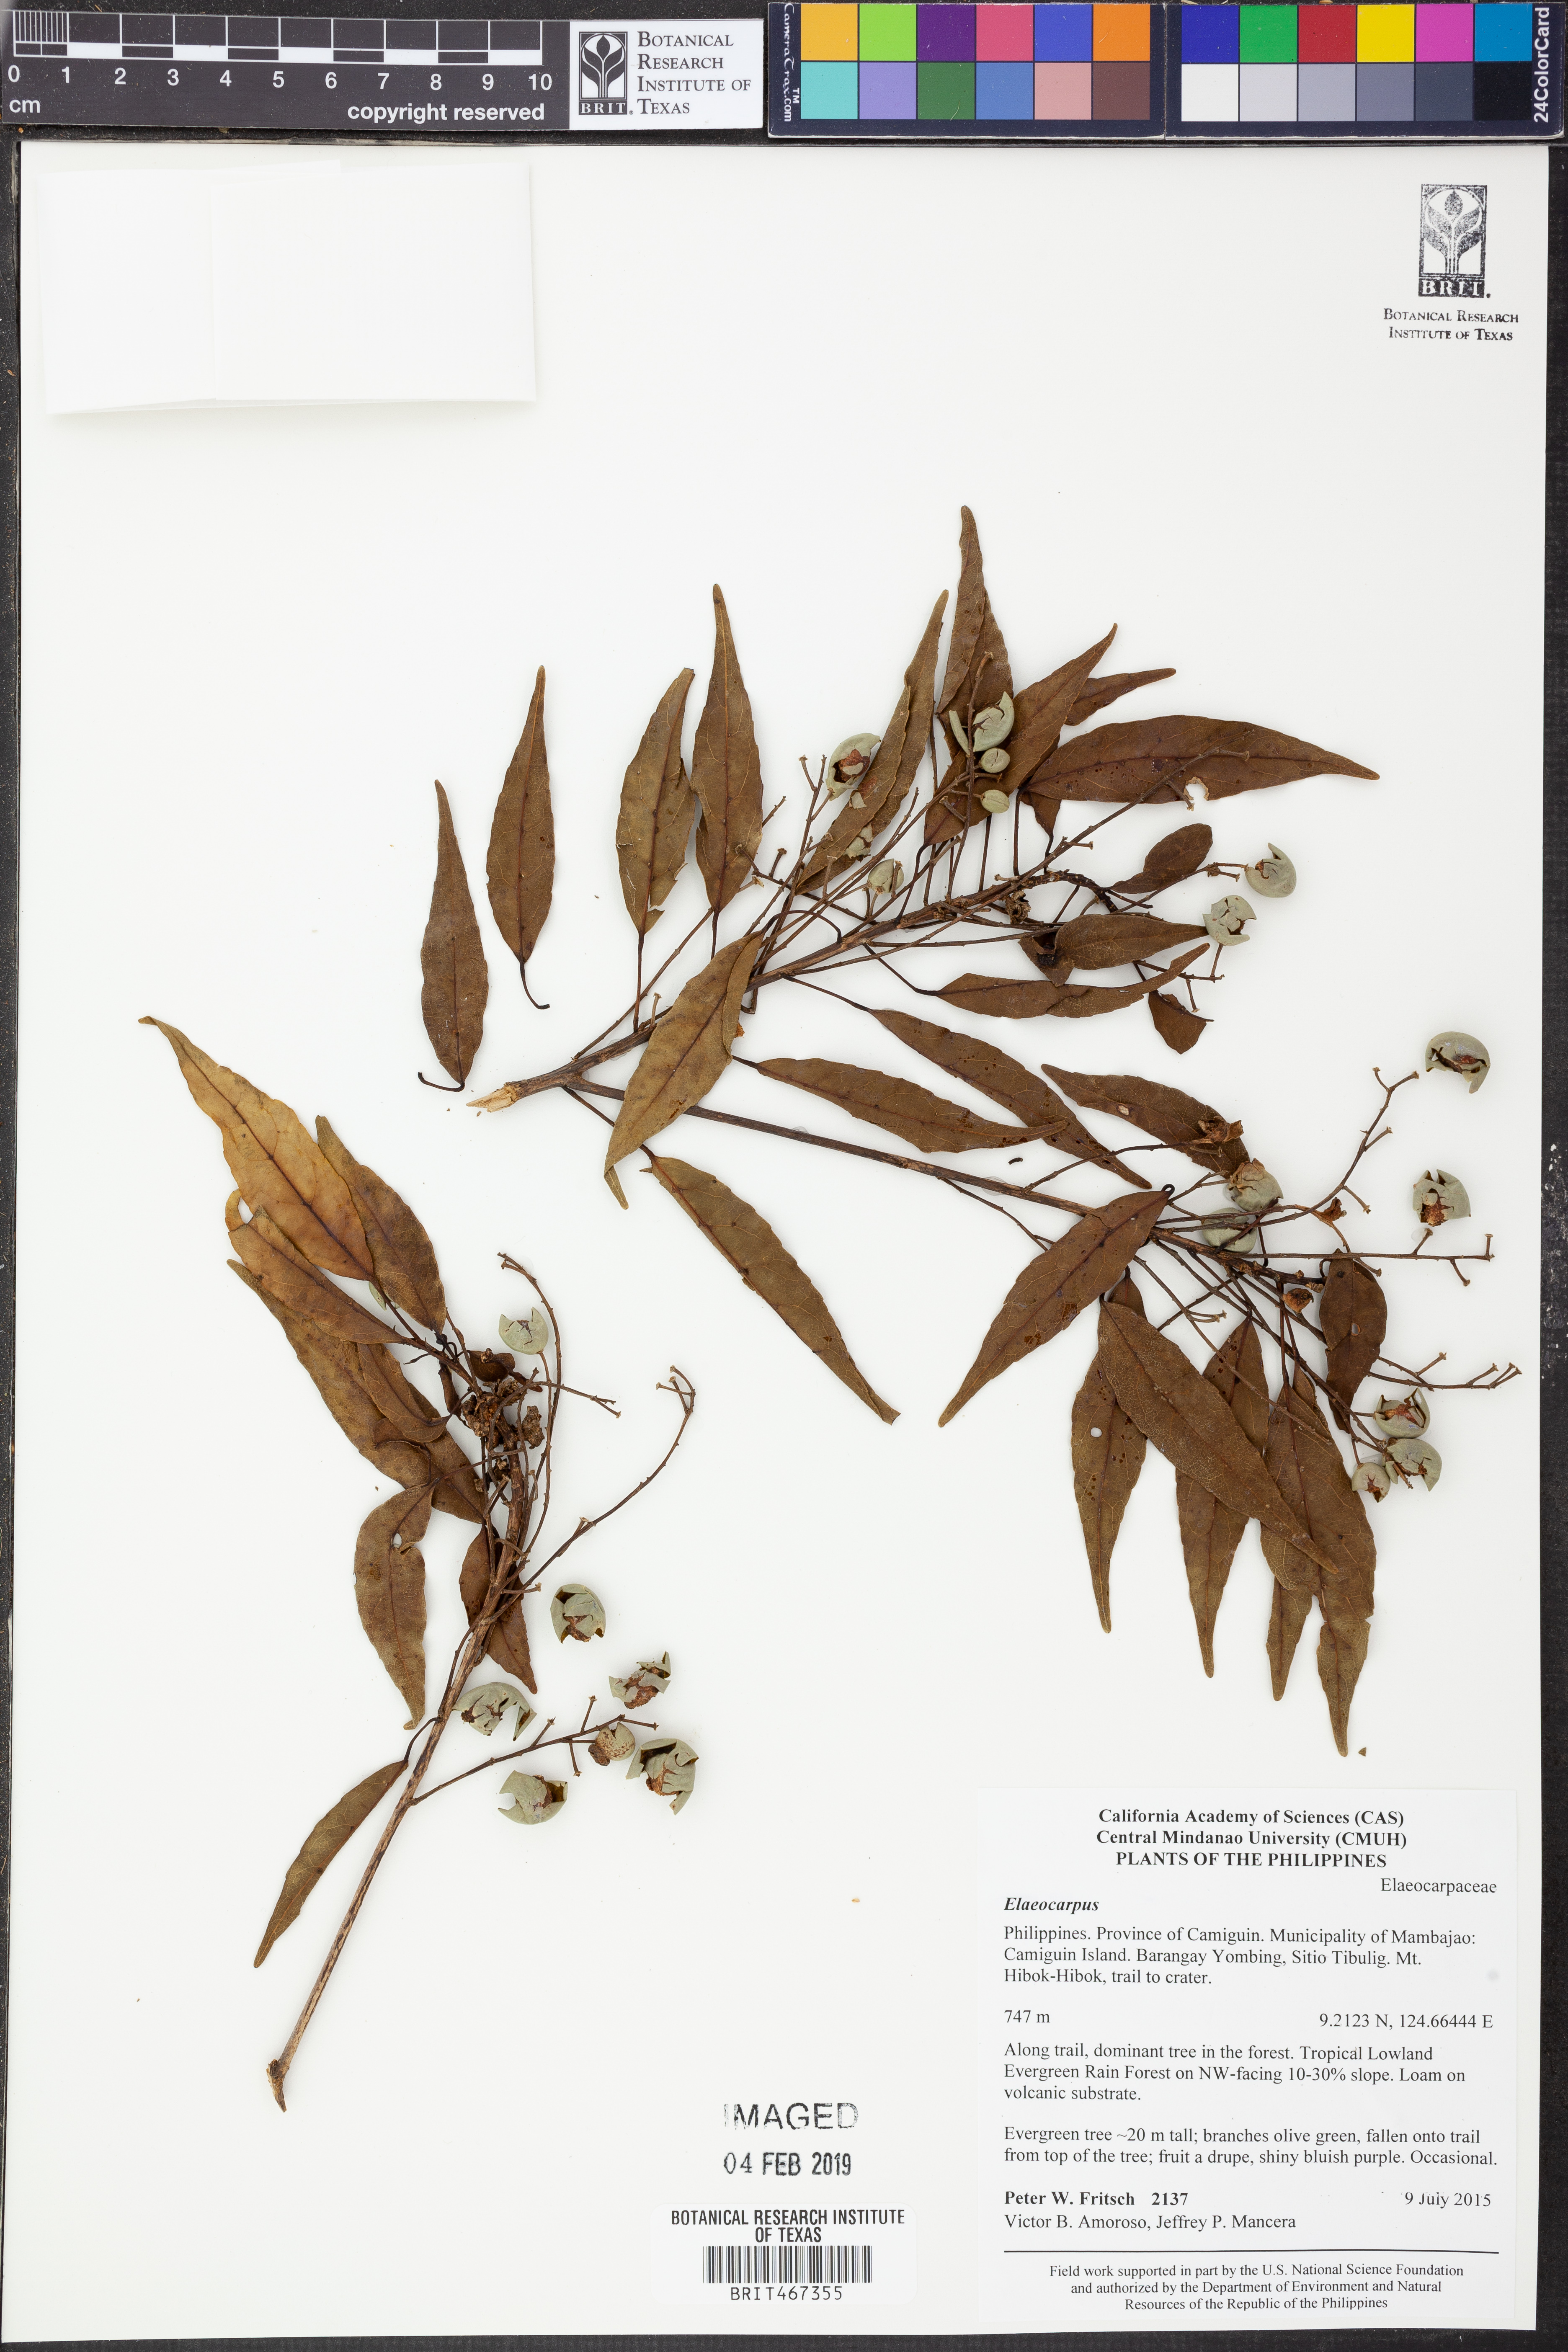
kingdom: Plantae
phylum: Tracheophyta
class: Magnoliopsida
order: Oxalidales
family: Elaeocarpaceae
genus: Elaeocarpus
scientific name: Elaeocarpus
